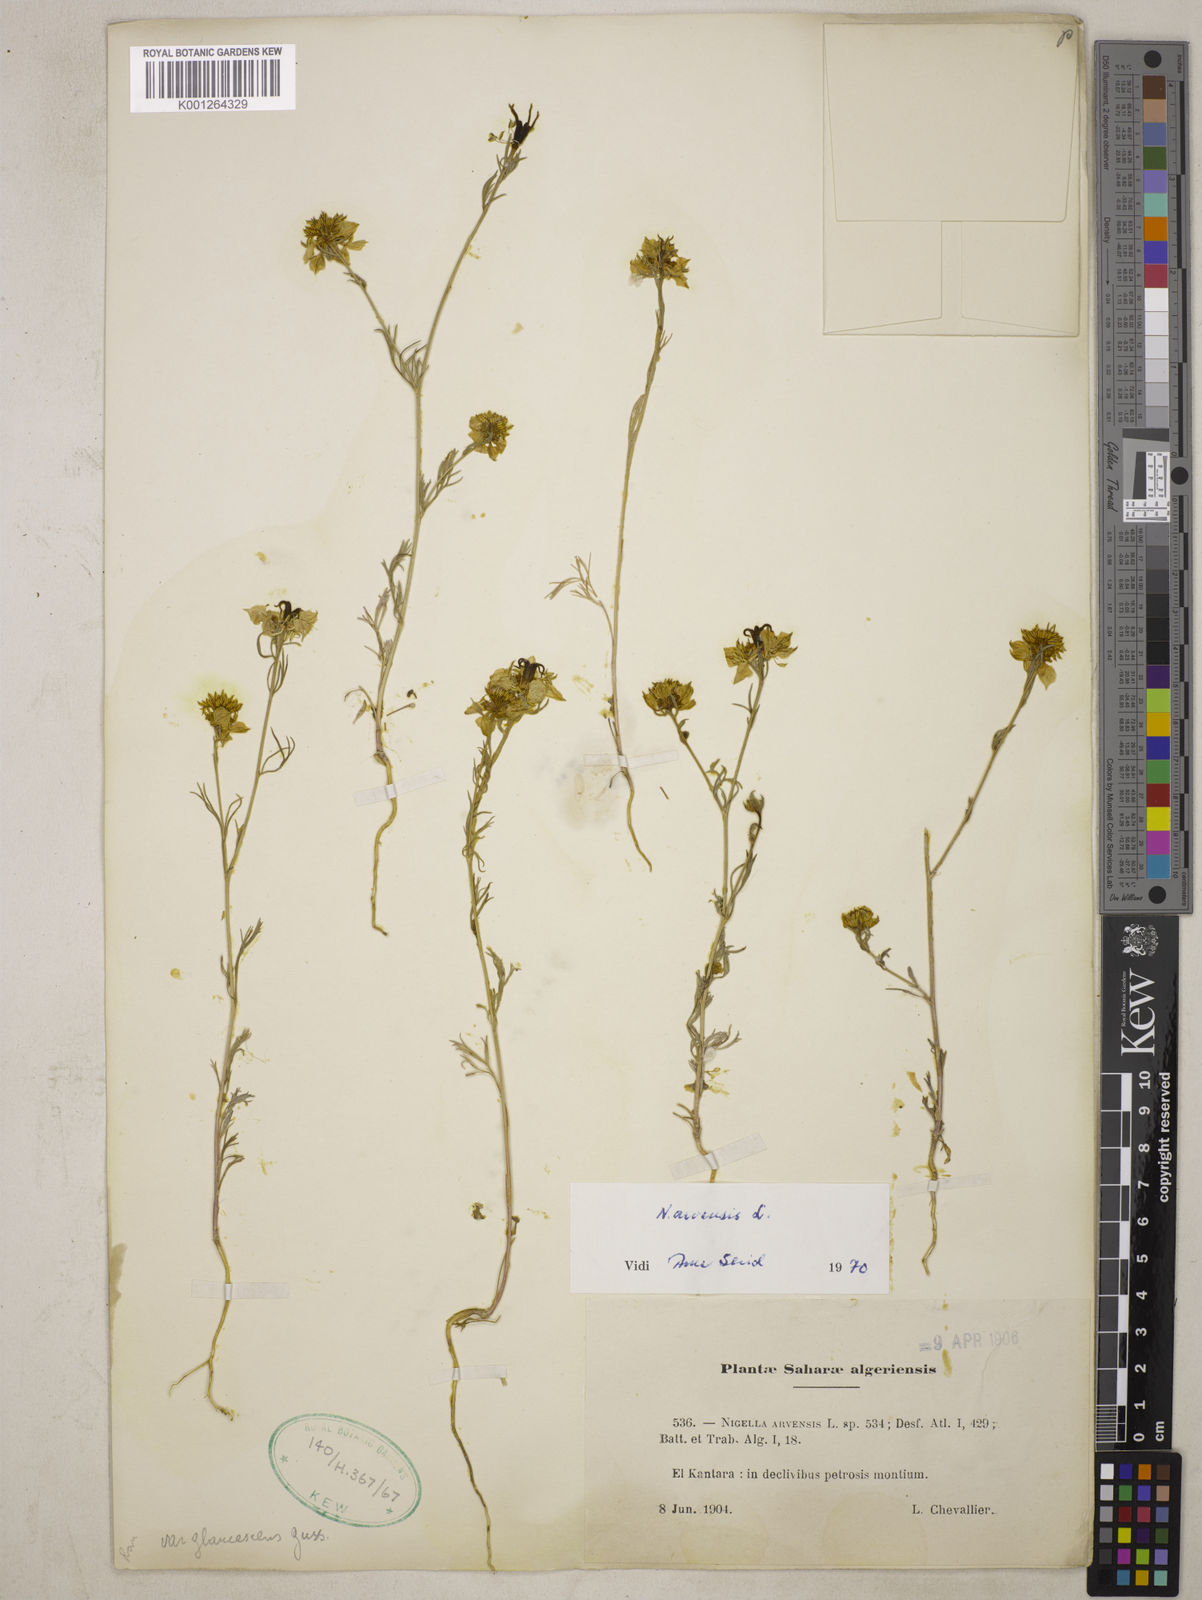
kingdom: Plantae
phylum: Tracheophyta
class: Magnoliopsida
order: Ranunculales
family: Ranunculaceae
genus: Nigella
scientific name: Nigella arvensis
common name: Wild fennel-flower
